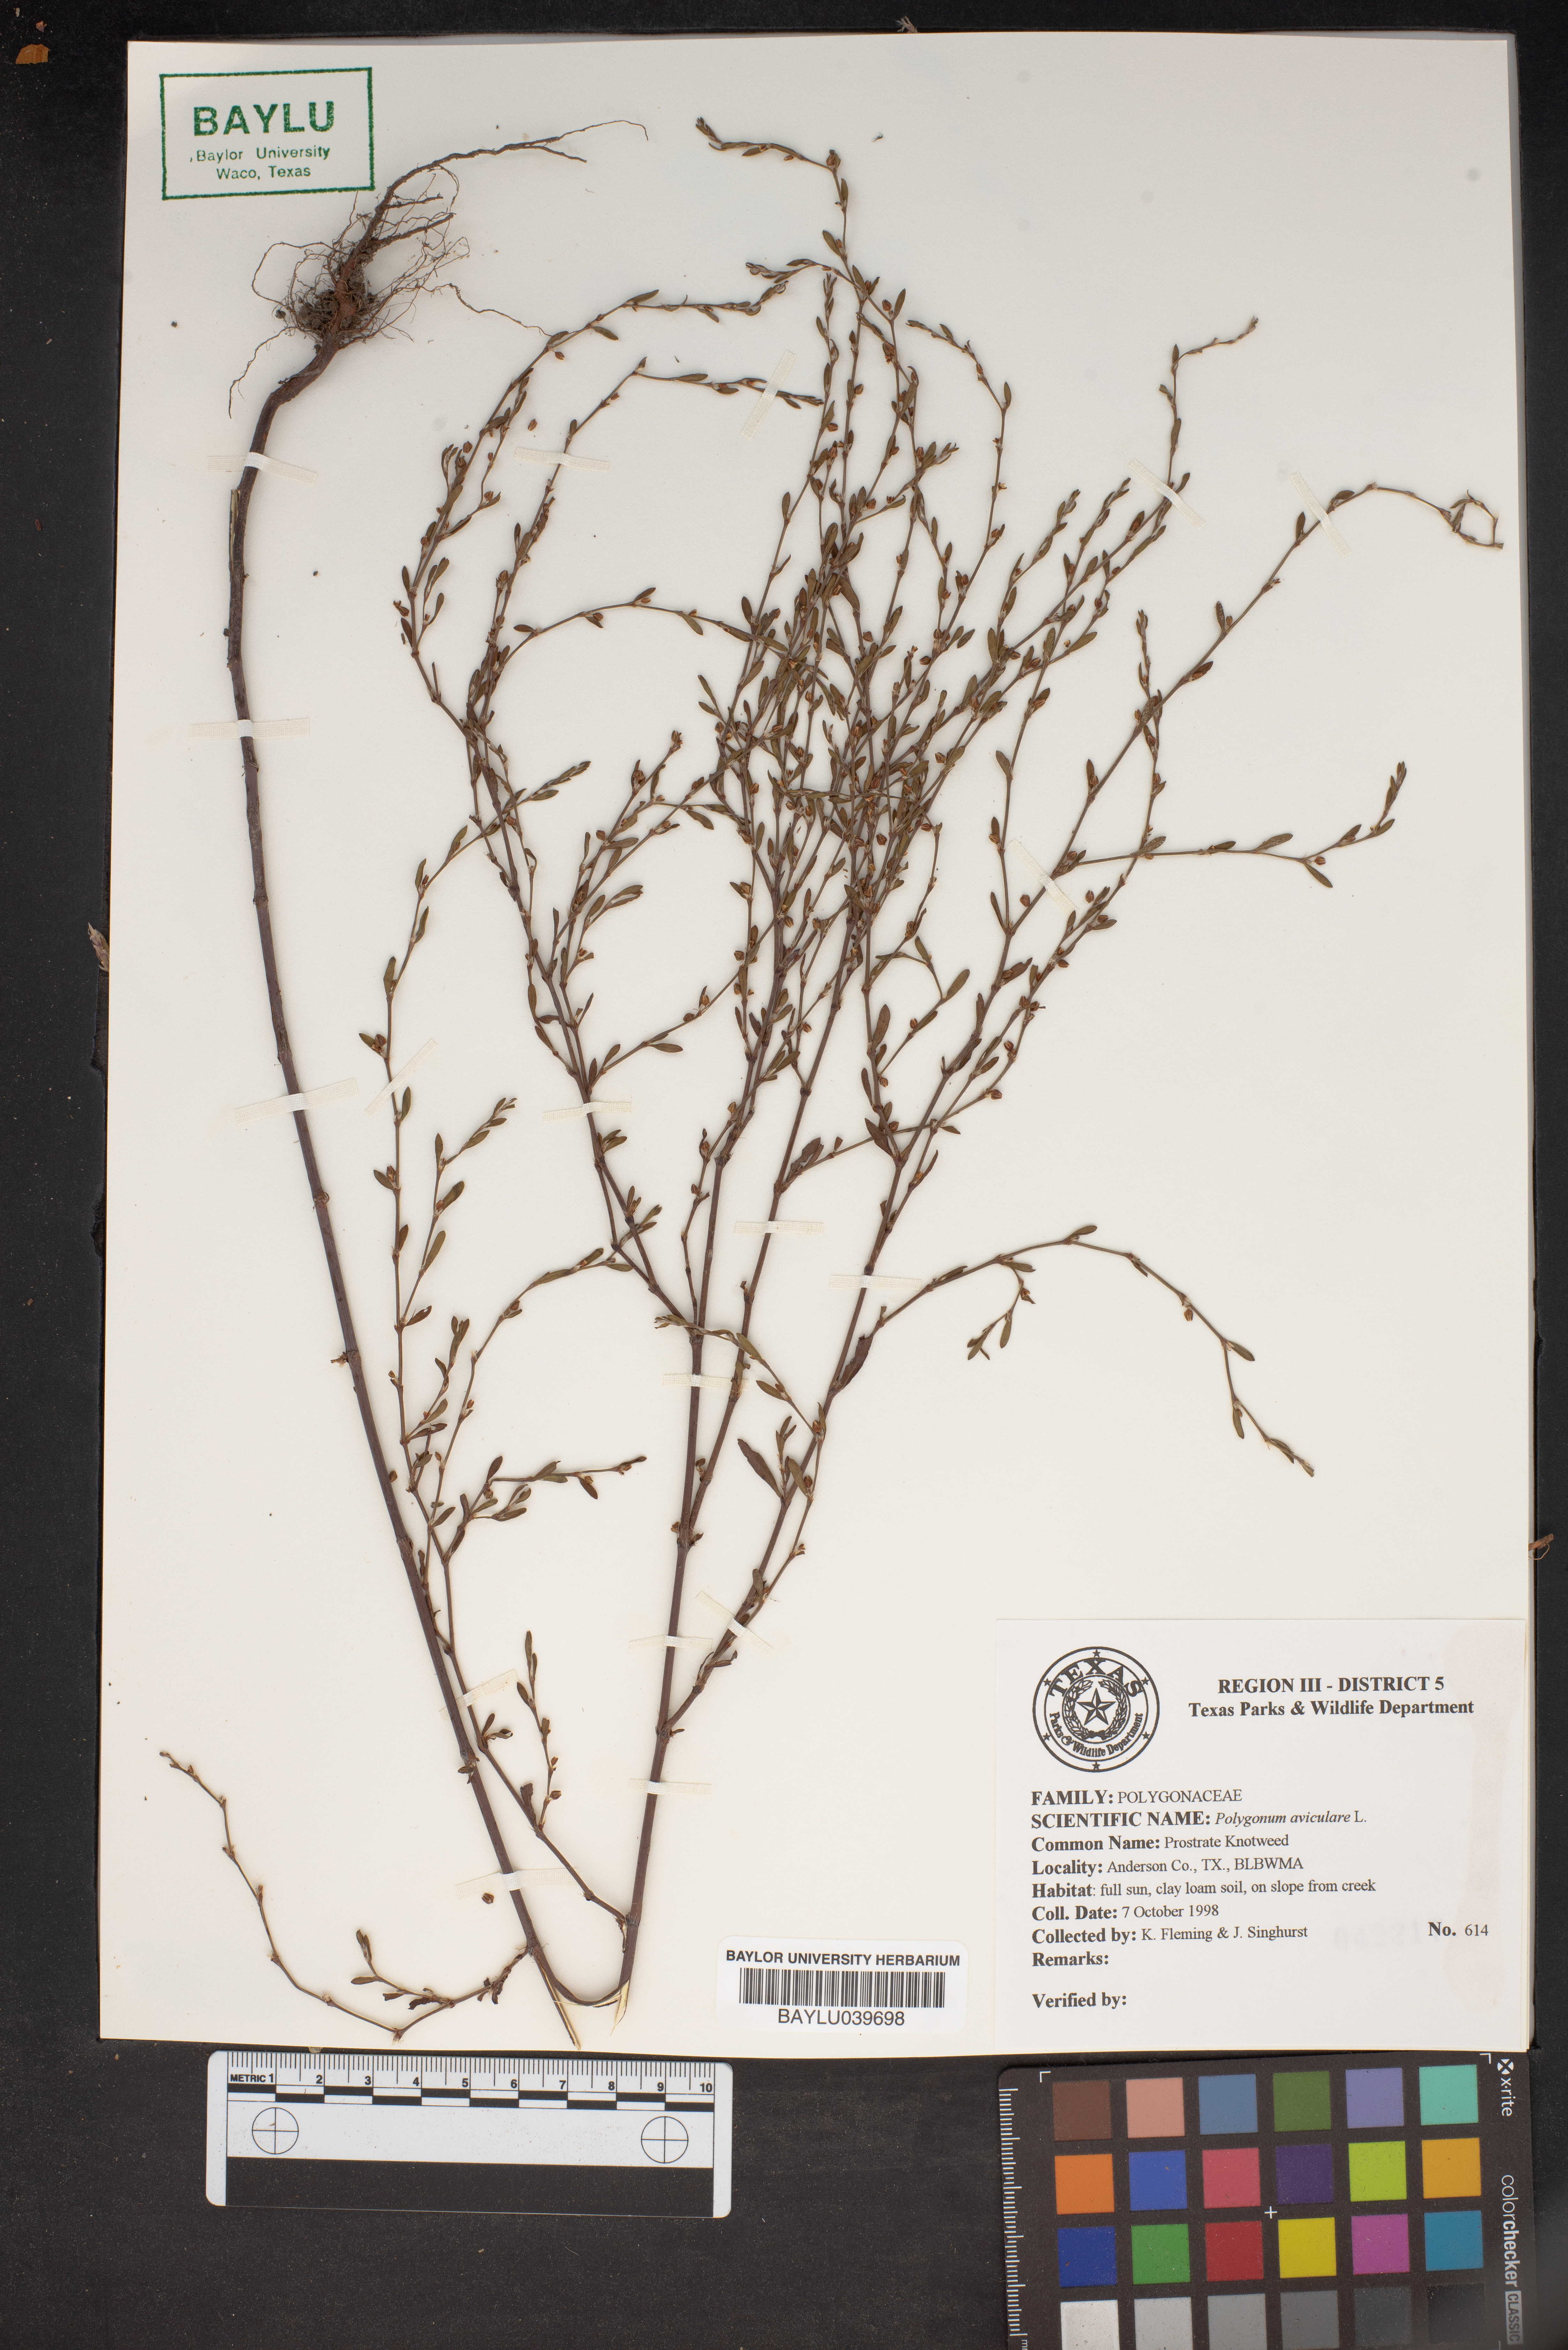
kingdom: Plantae
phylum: Tracheophyta
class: Magnoliopsida
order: Caryophyllales
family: Polygonaceae
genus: Polygonum
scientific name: Polygonum aviculare
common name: Prostrate knotweed
